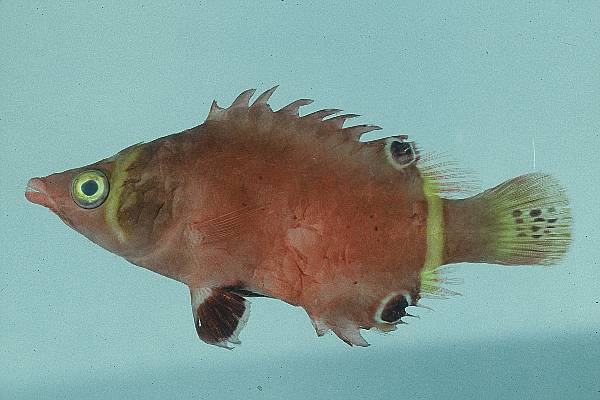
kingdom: Animalia
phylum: Chordata
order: Perciformes
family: Labridae
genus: Wetmorella
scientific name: Wetmorella nigropinnata
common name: Sharpnose wrasse
